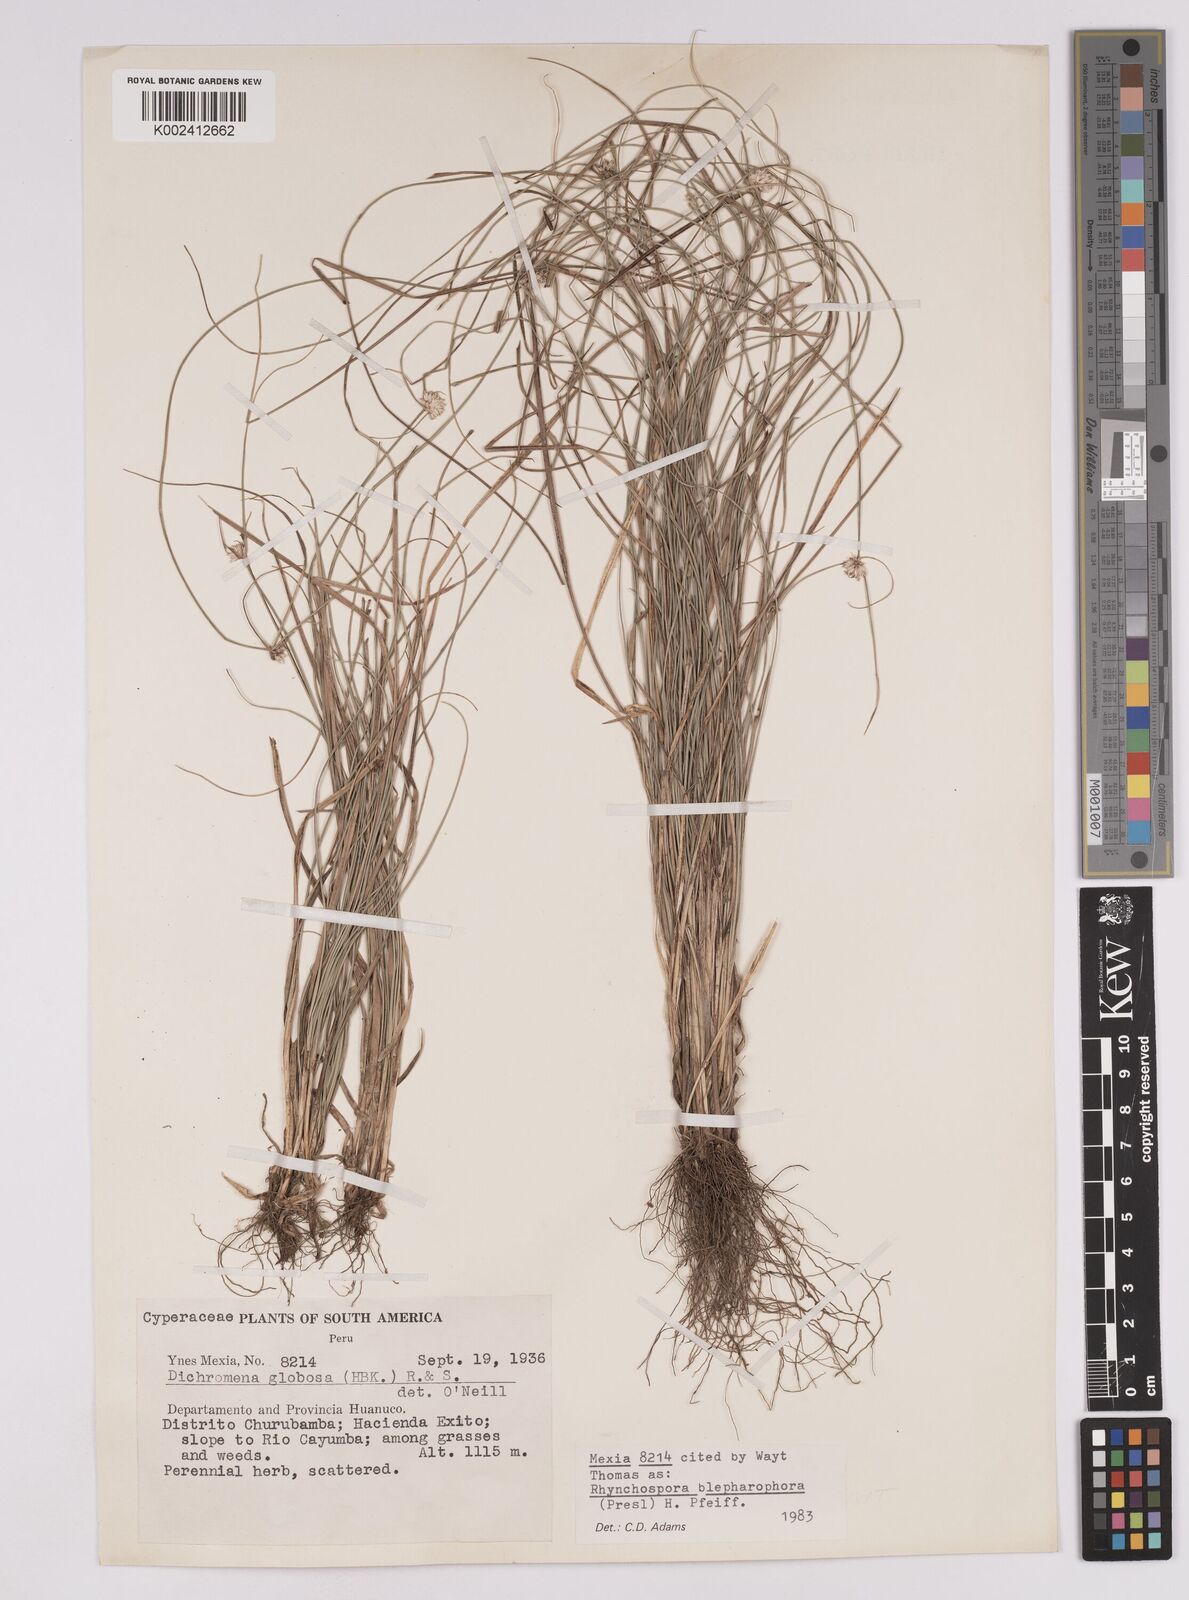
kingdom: Plantae
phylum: Tracheophyta
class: Liliopsida
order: Poales
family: Cyperaceae
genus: Rhynchospora
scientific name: Rhynchospora blepharophora
